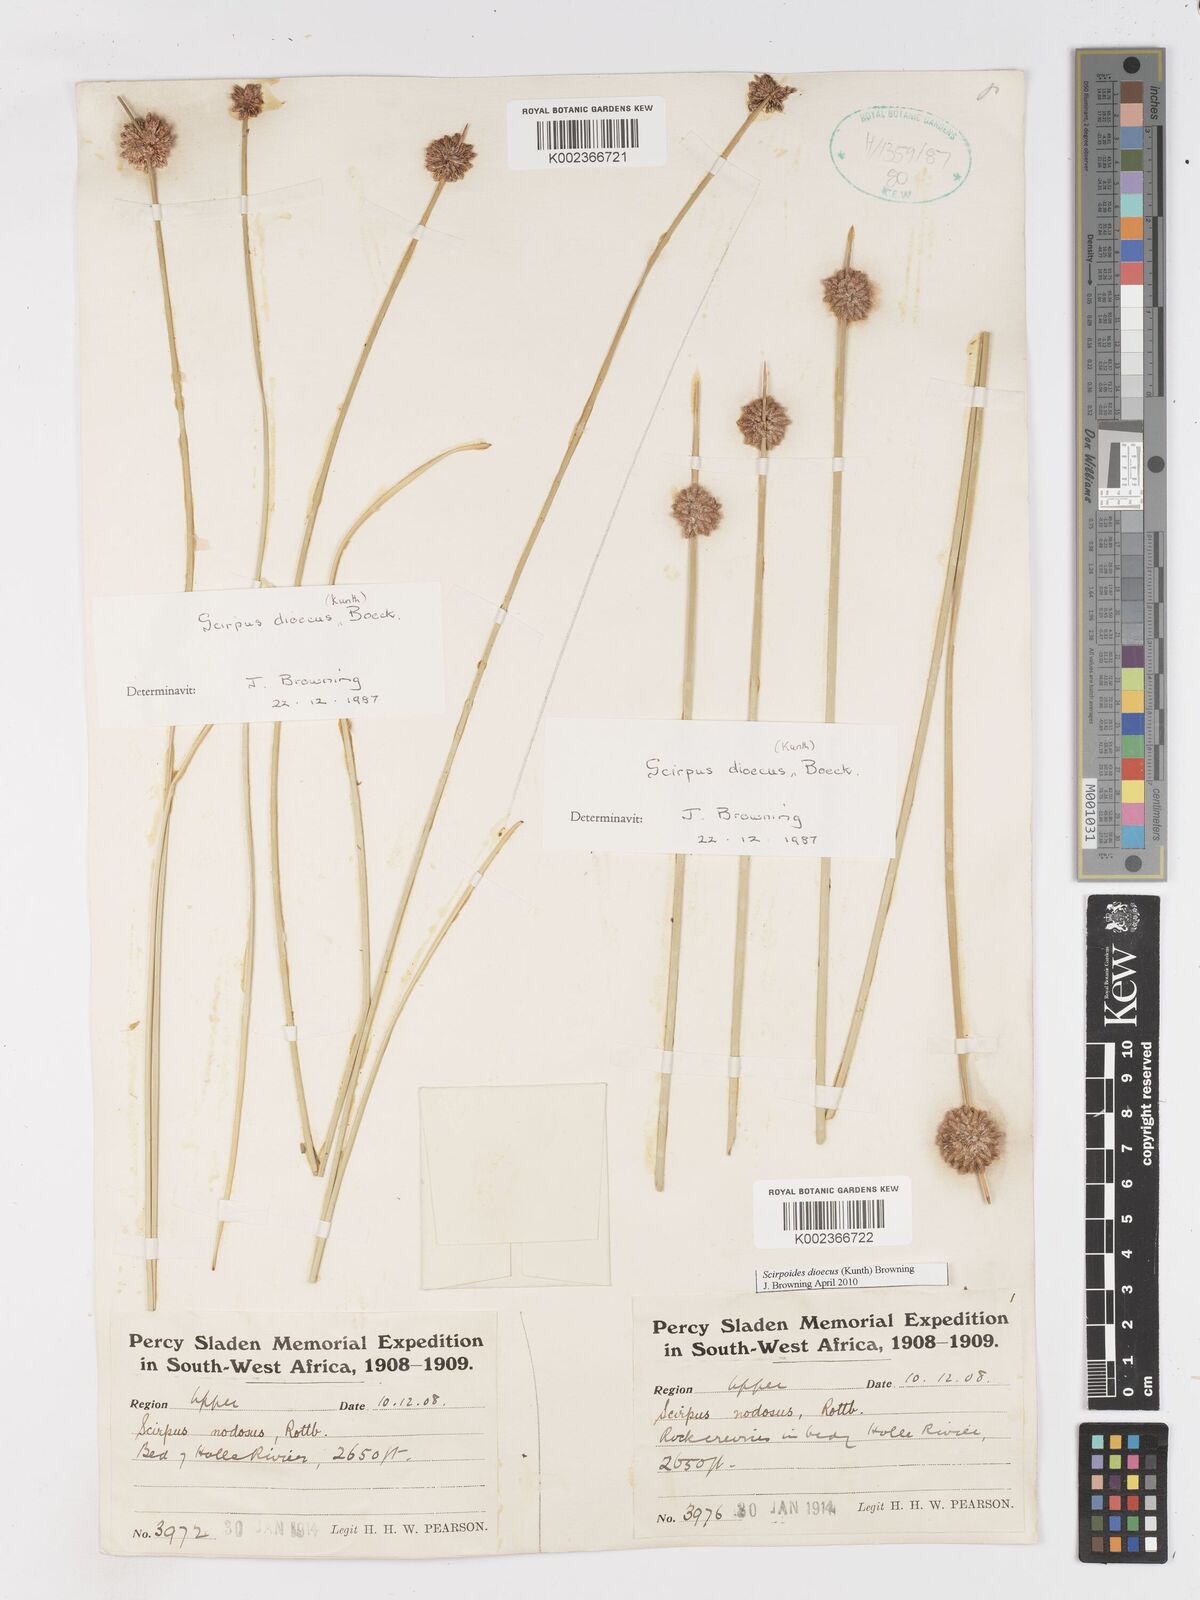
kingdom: Plantae
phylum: Tracheophyta
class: Liliopsida
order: Poales
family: Cyperaceae
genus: Scirpoides
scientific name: Scirpoides
